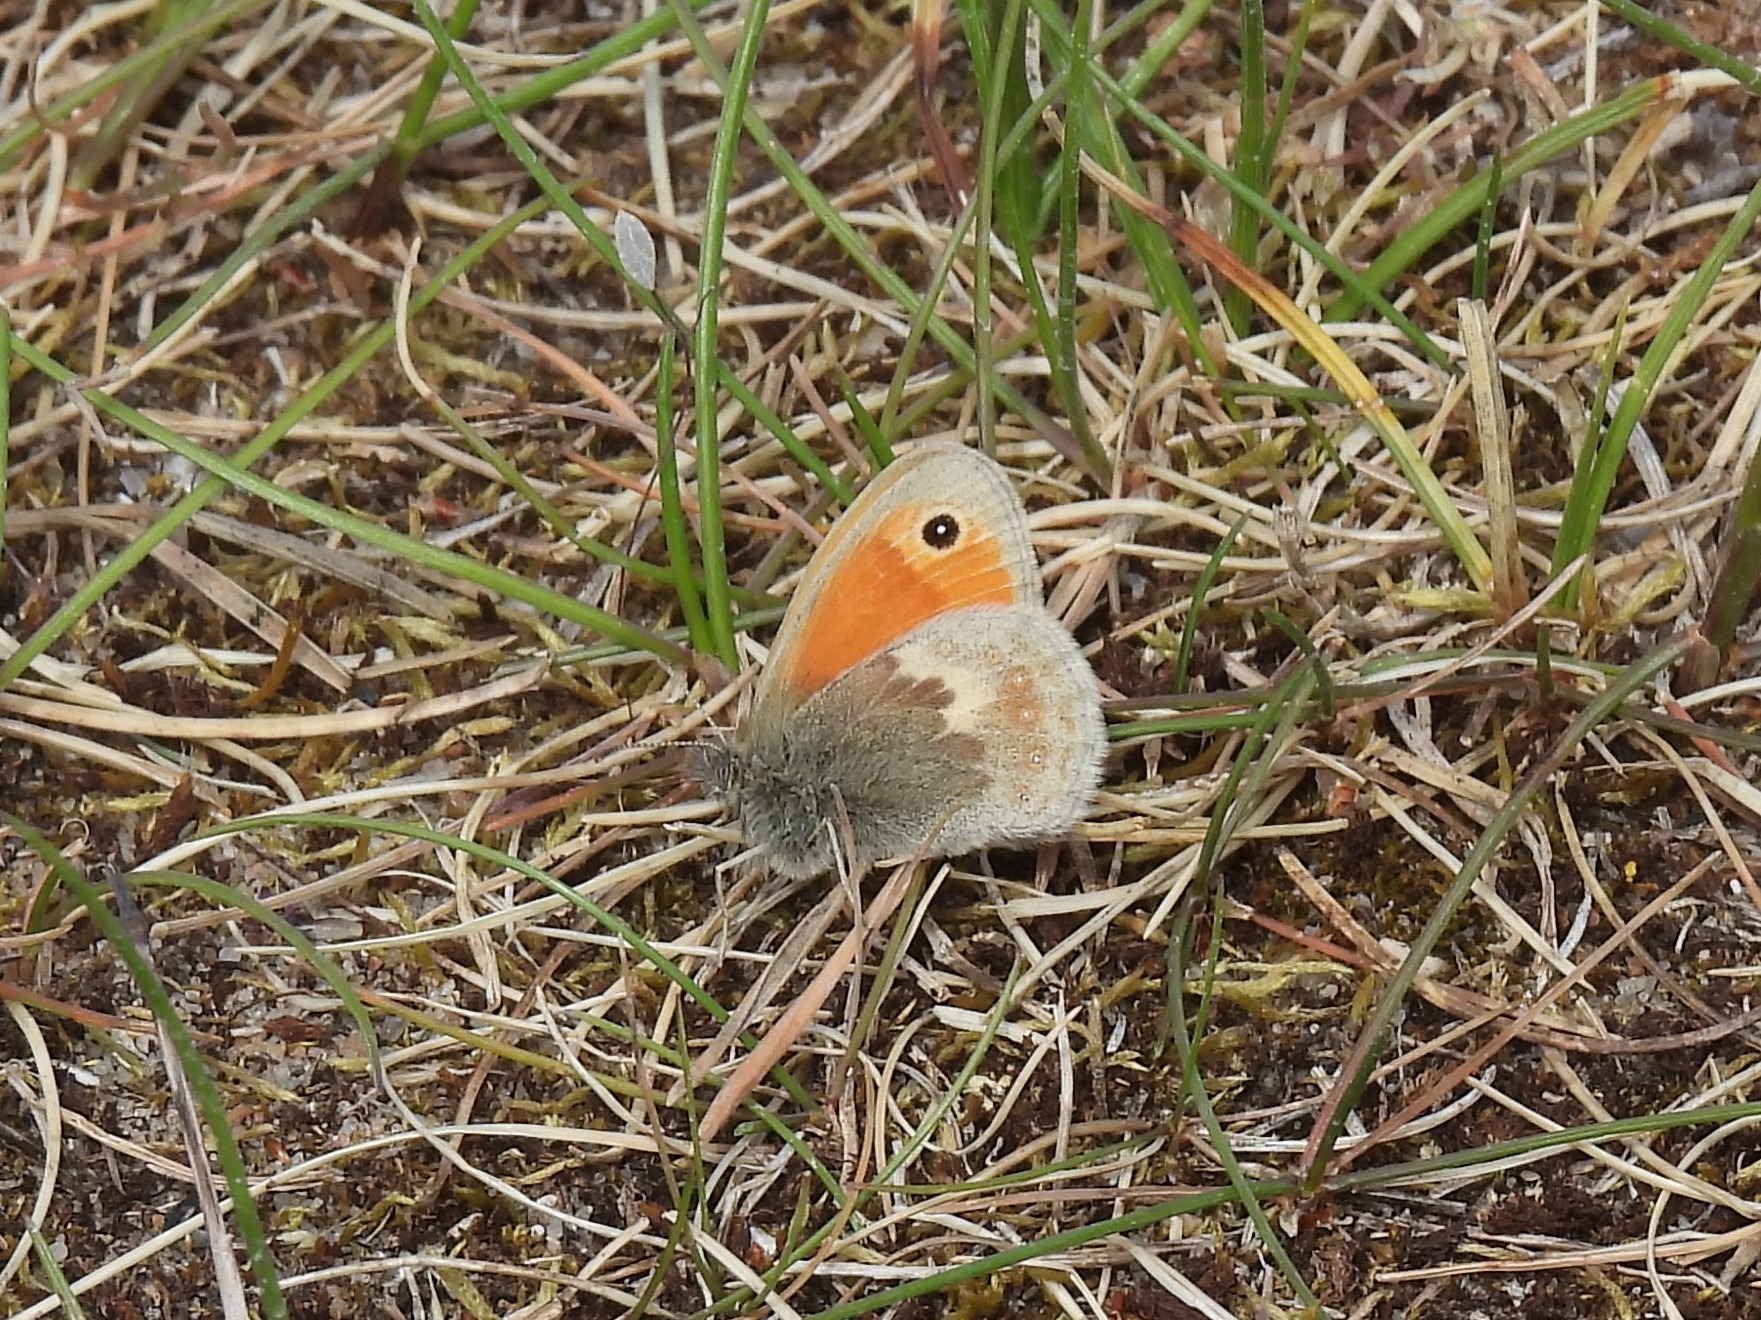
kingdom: Animalia
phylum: Arthropoda
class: Insecta
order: Lepidoptera
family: Nymphalidae
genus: Coenonympha
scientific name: Coenonympha pamphilus
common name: Okkergul randøje
